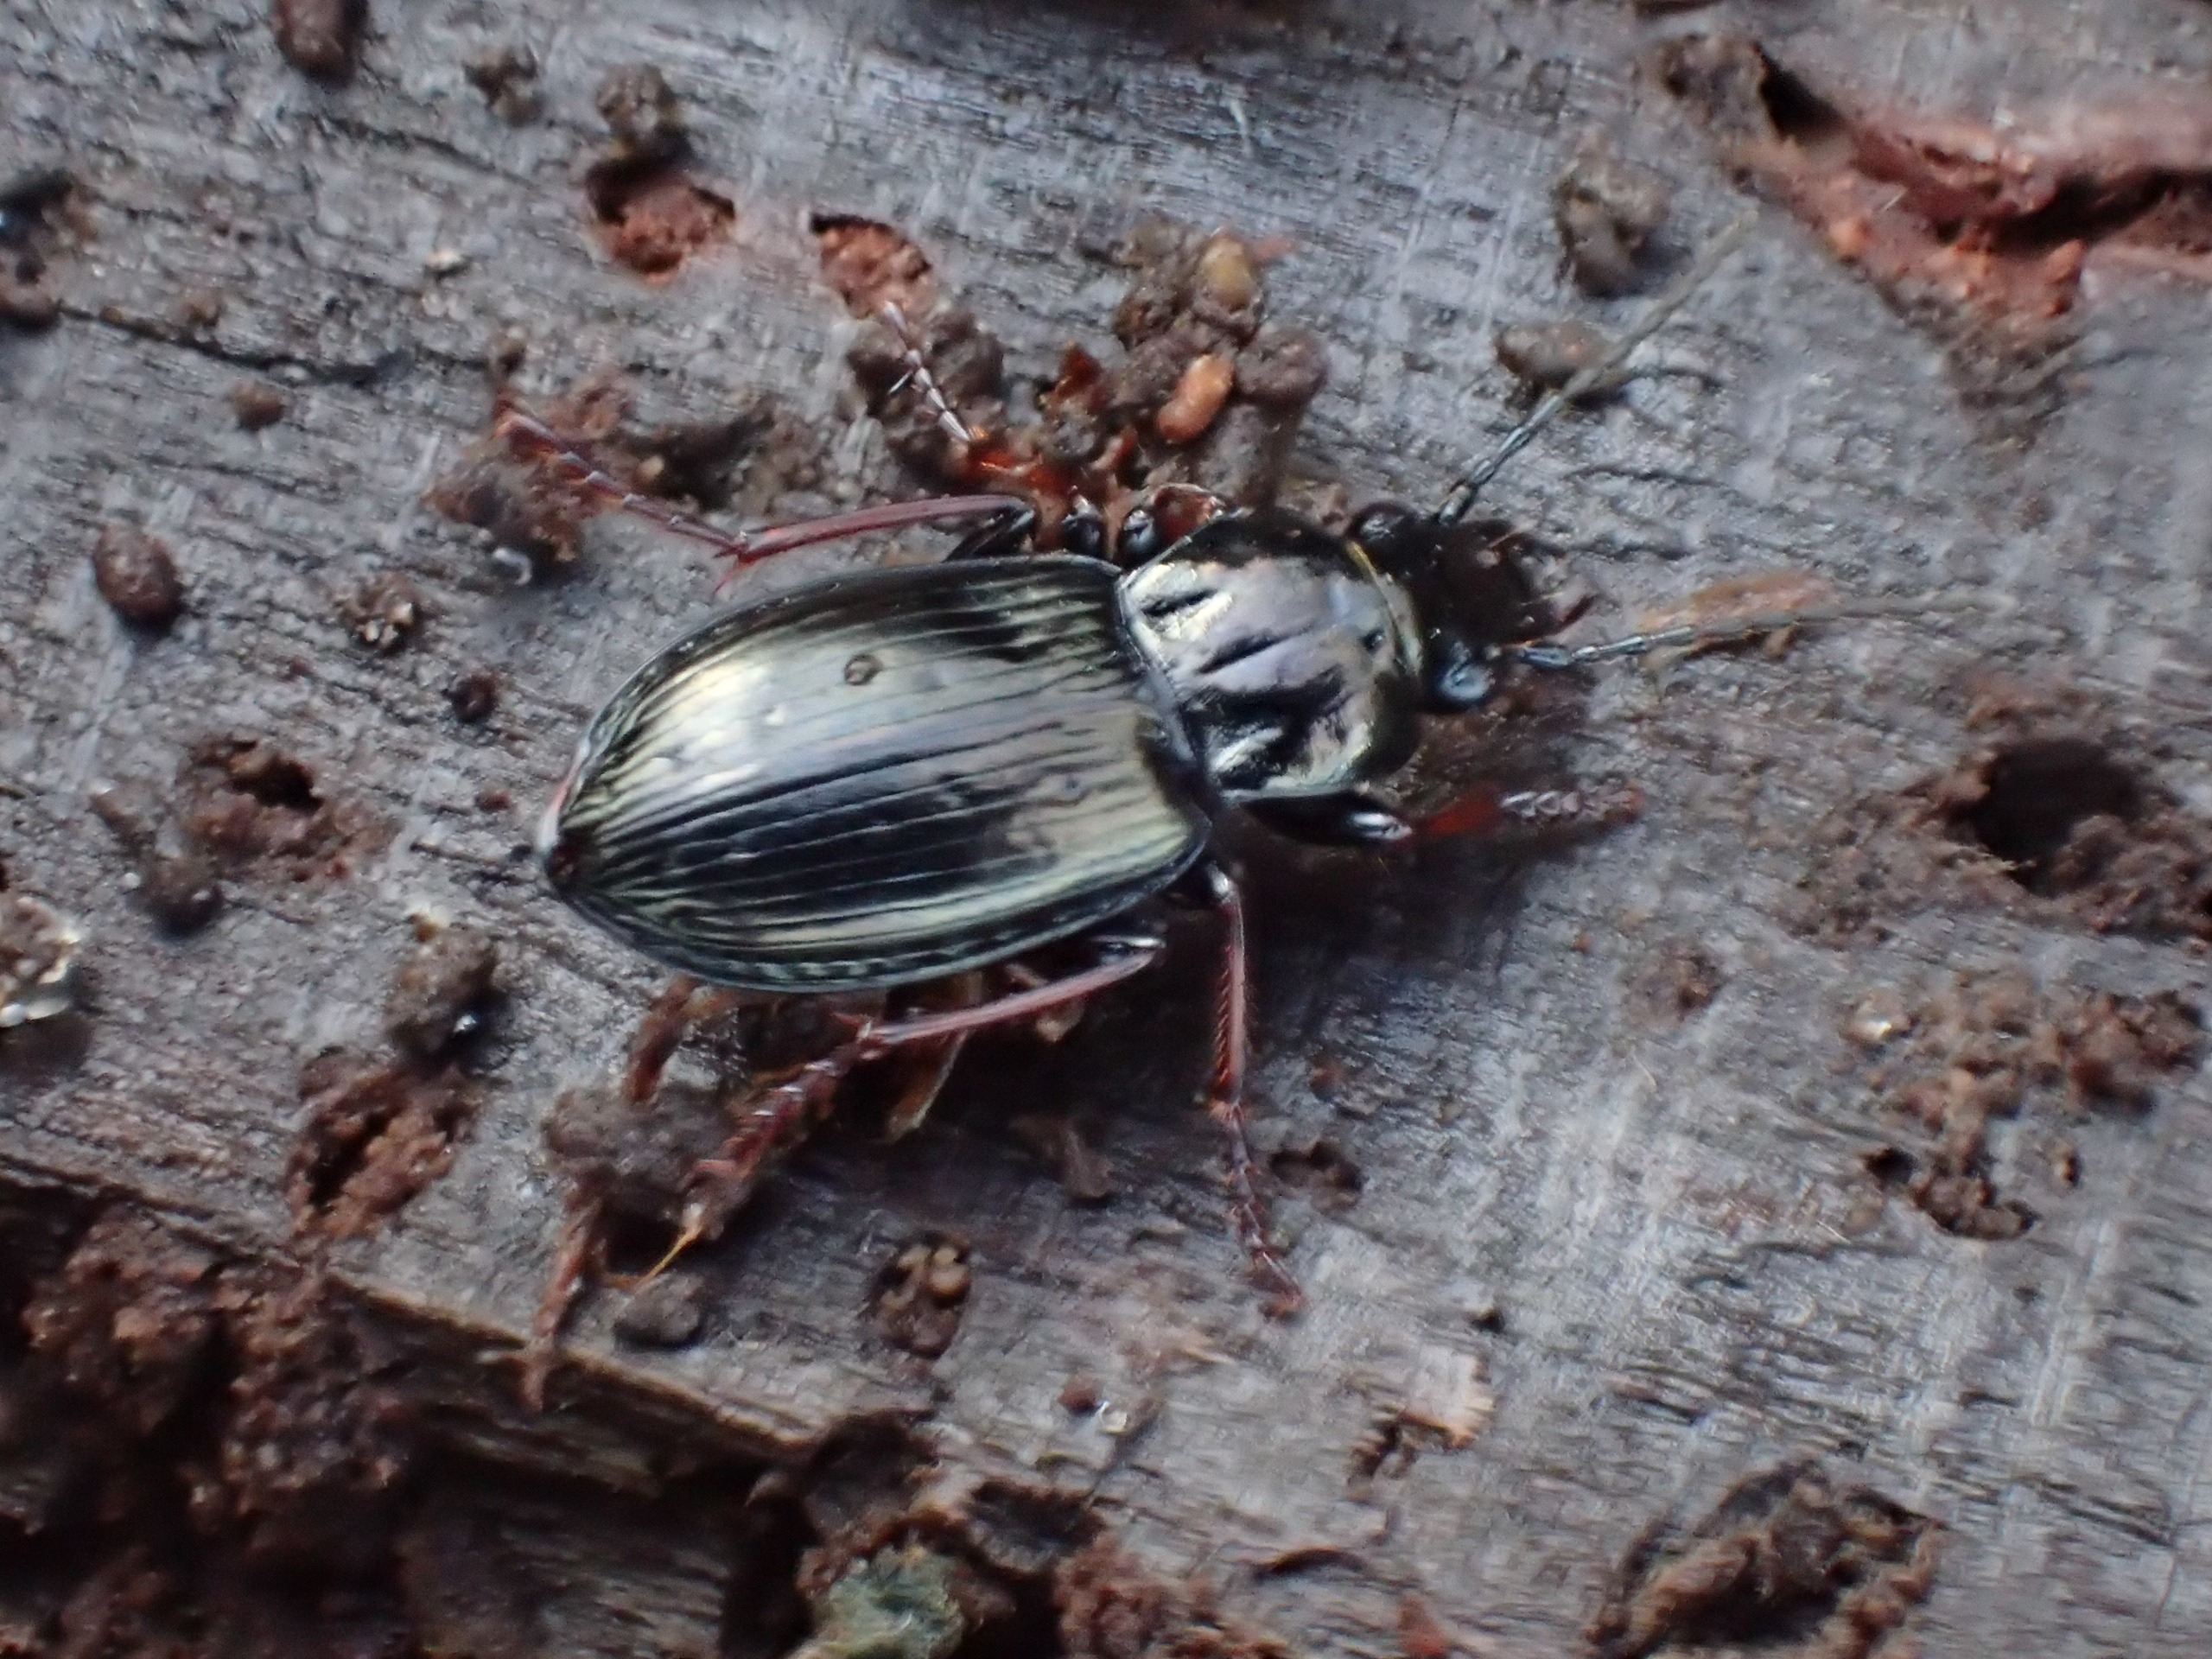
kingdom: Animalia
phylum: Arthropoda
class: Insecta
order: Coleoptera
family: Carabidae
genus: Pterostichus
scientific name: Pterostichus oblongopunctatus
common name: Bronzejordløber
